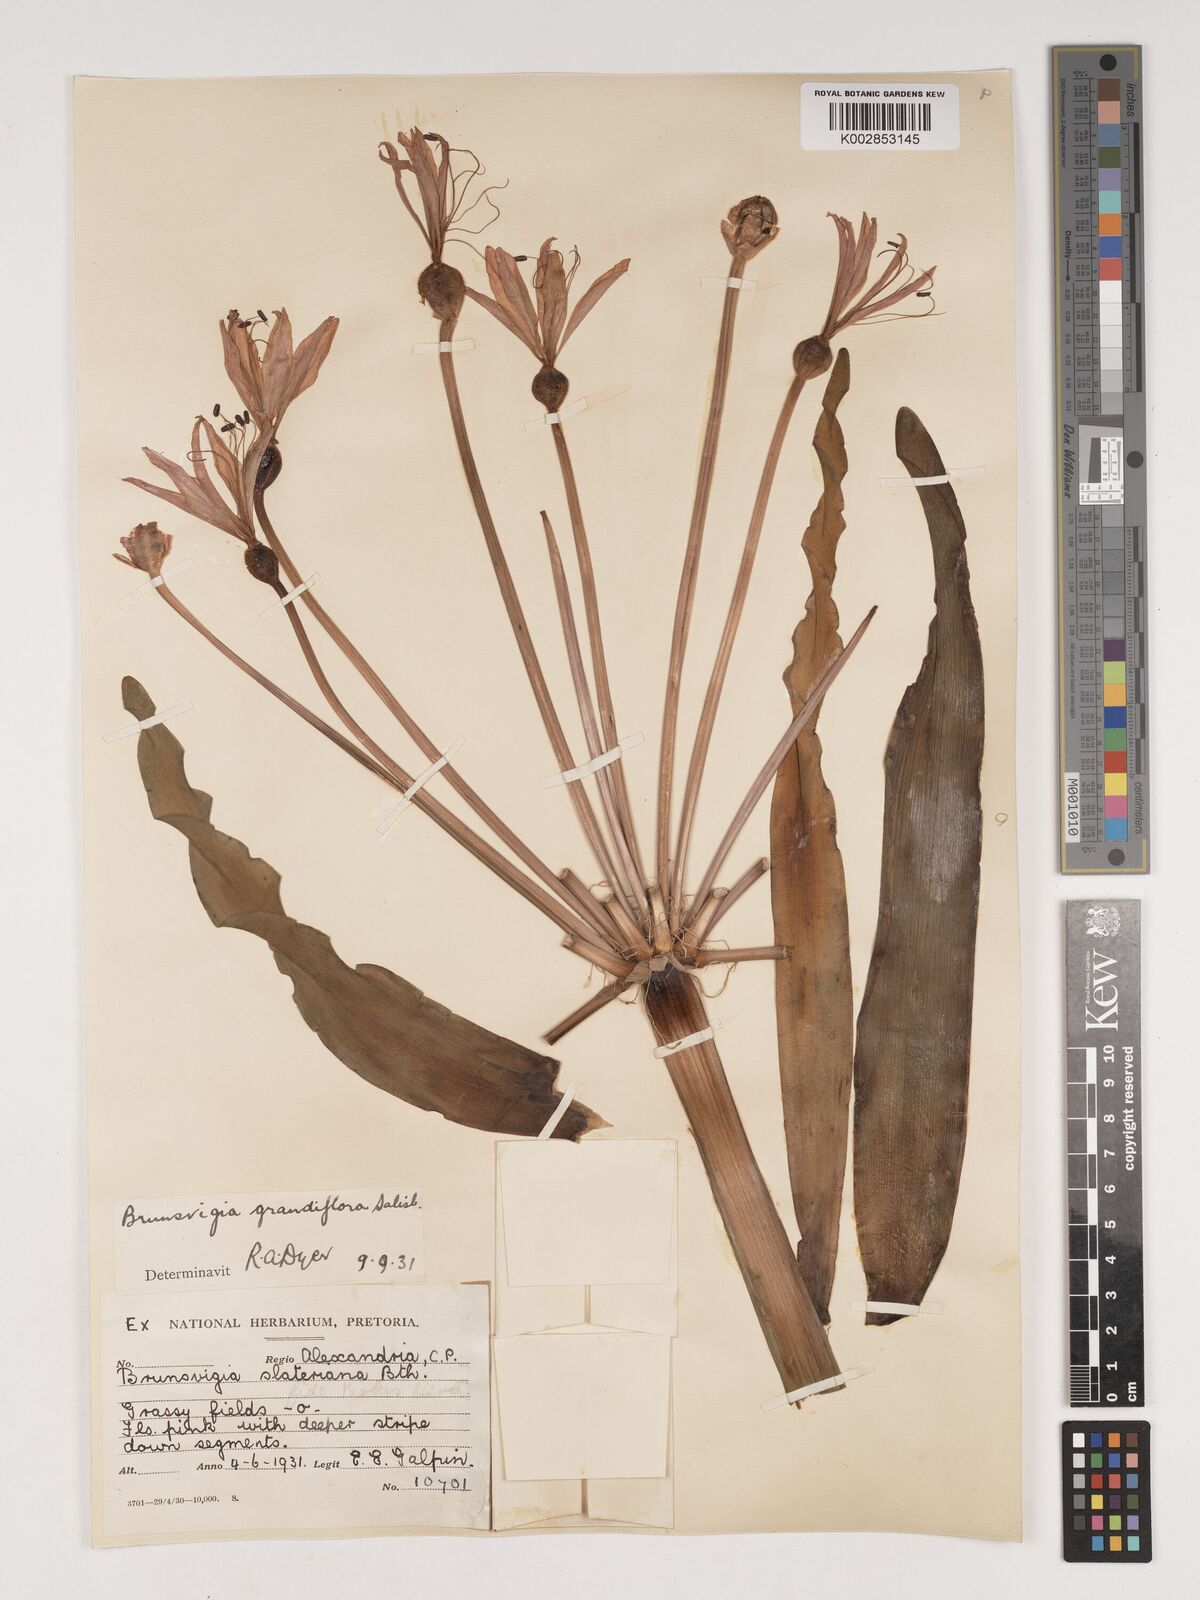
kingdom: Plantae
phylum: Tracheophyta
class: Liliopsida
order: Asparagales
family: Amaryllidaceae
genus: Brunsvigia
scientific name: Brunsvigia grandiflora
